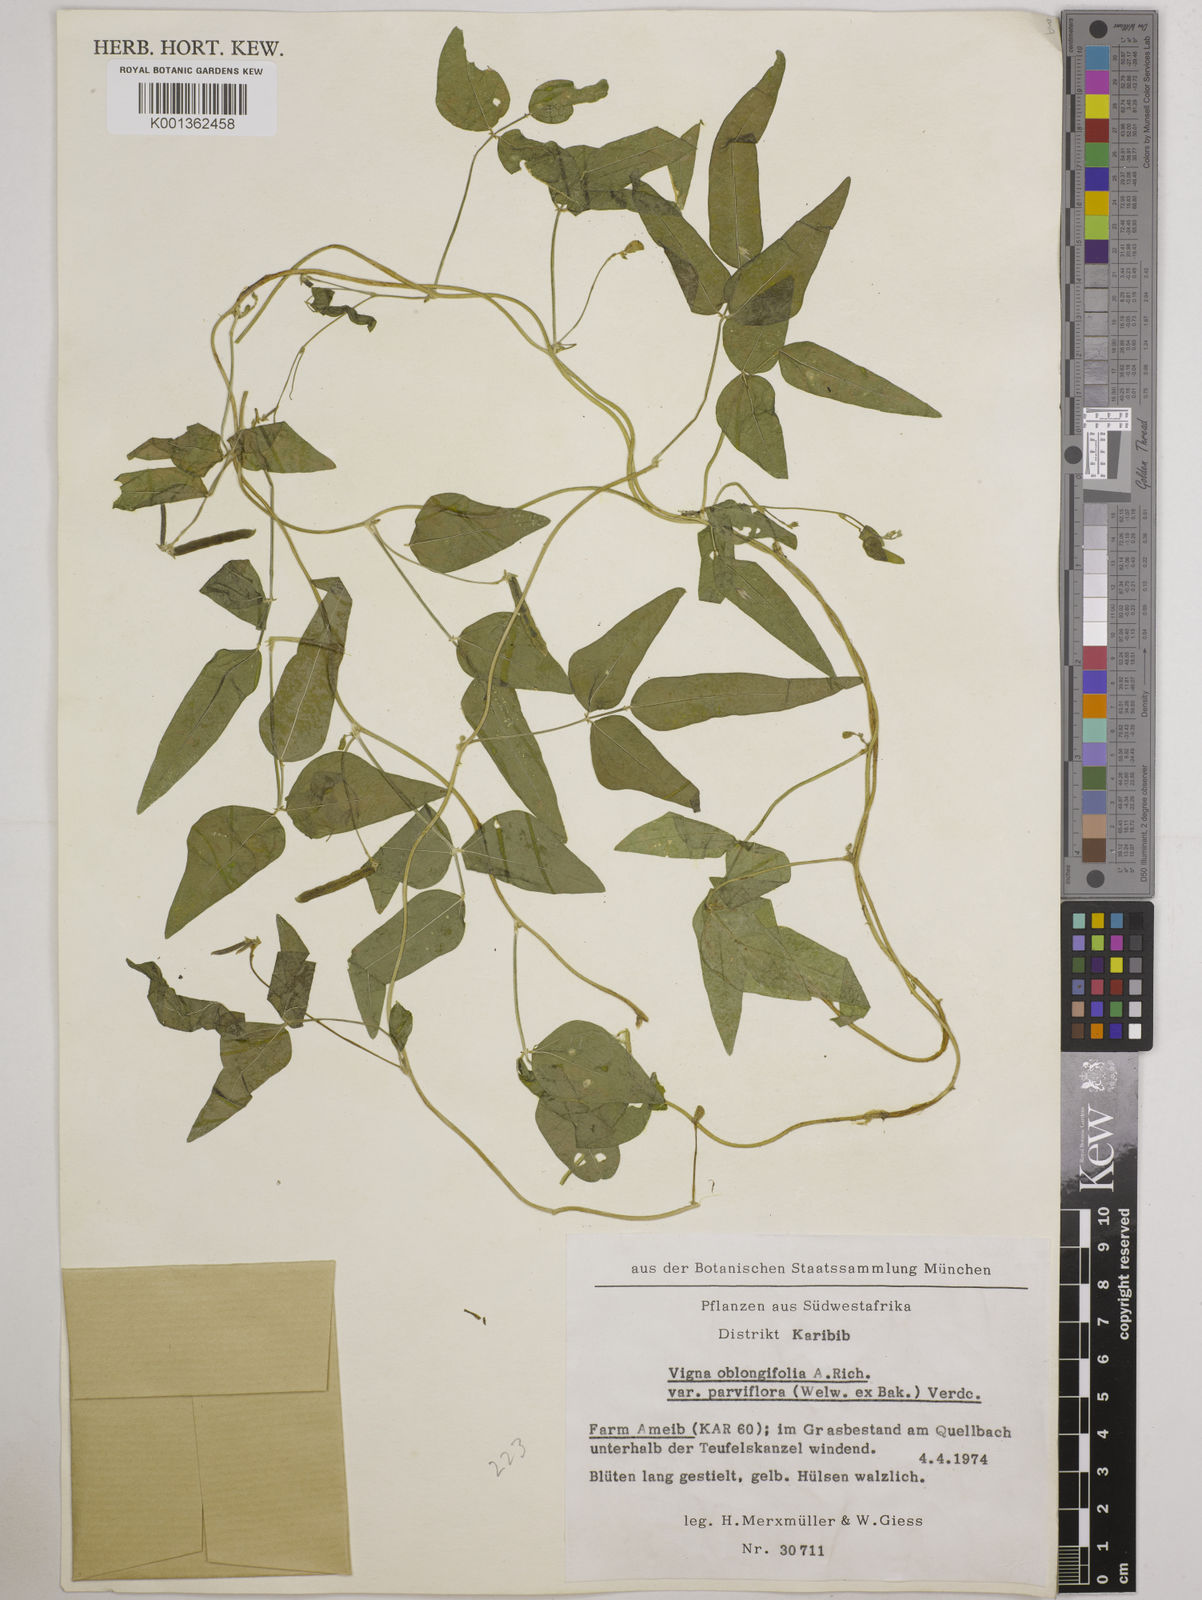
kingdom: Plantae
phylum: Tracheophyta
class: Magnoliopsida
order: Fabales
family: Fabaceae
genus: Vigna
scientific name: Vigna
